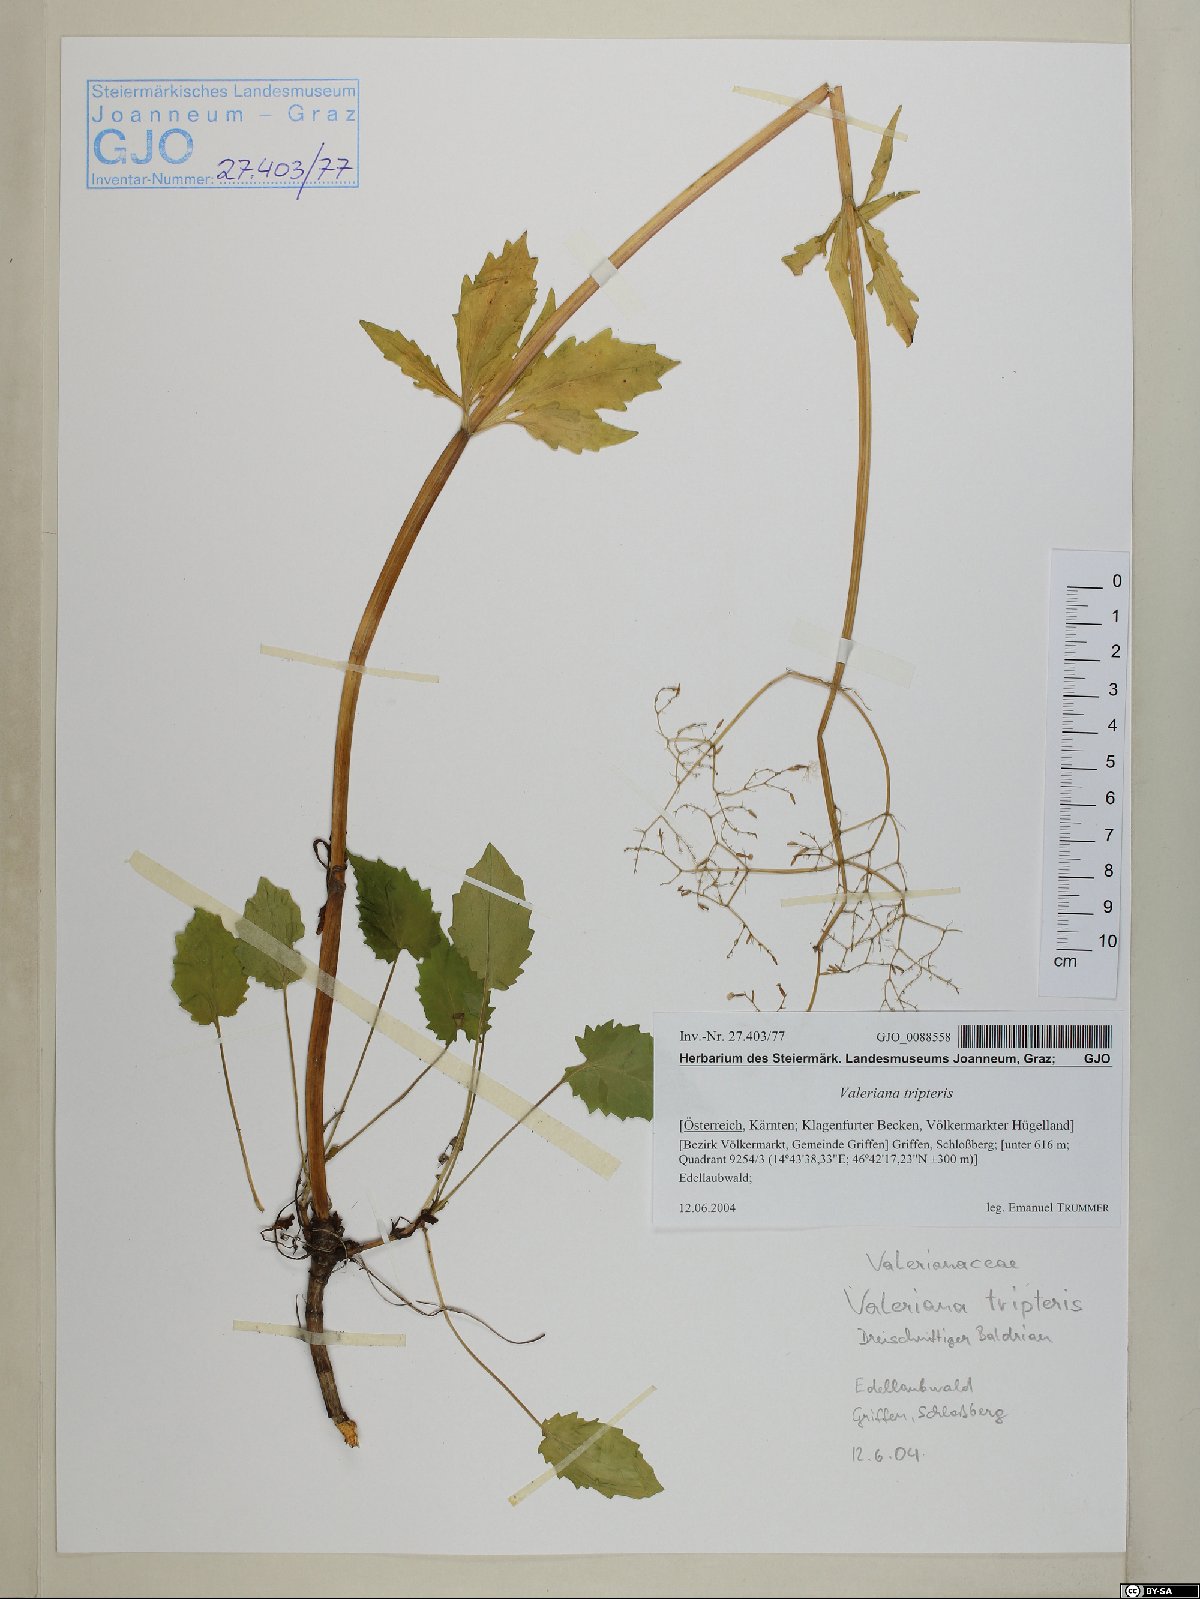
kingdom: Plantae
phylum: Tracheophyta
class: Magnoliopsida
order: Dipsacales
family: Caprifoliaceae
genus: Valeriana
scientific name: Valeriana tripteris
